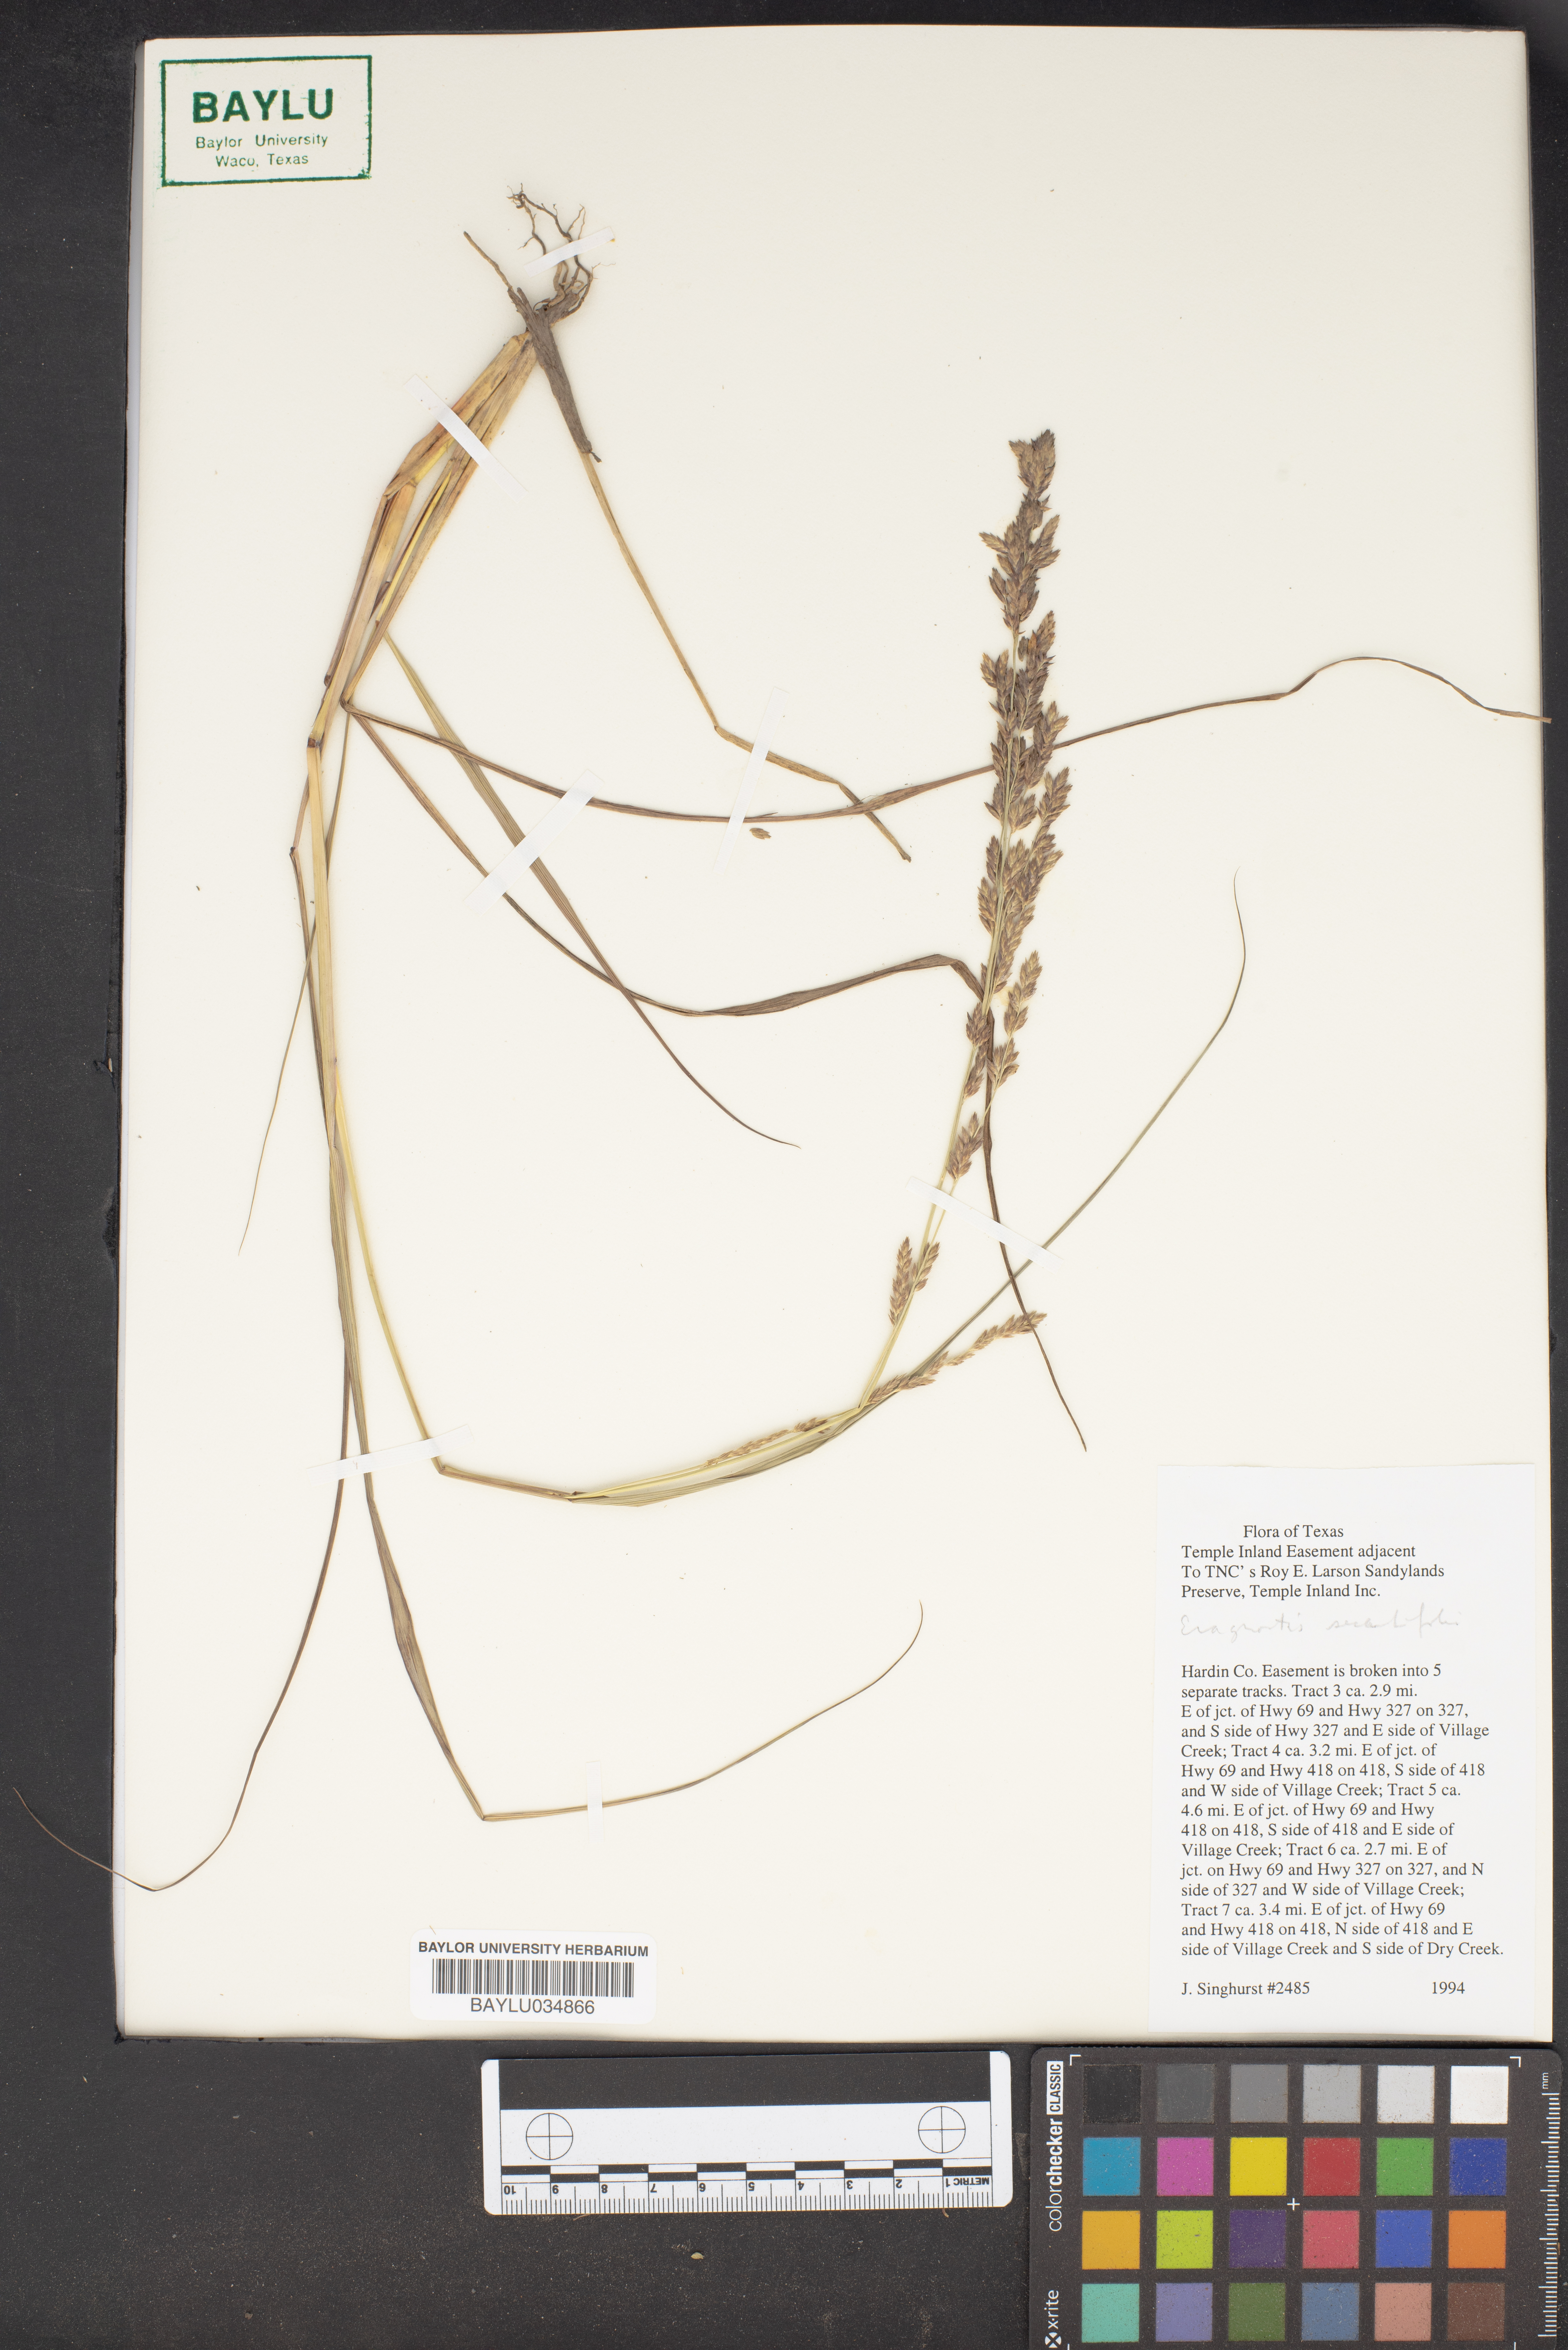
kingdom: Plantae
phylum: Tracheophyta
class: Liliopsida
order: Poales
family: Poaceae
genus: Eragrostis
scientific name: Eragrostis
